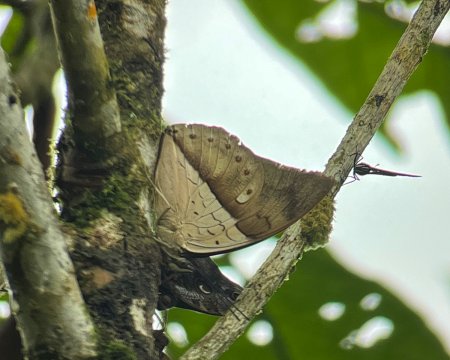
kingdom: Animalia
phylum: Arthropoda
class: Insecta
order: Lepidoptera
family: Nymphalidae
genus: Prepona
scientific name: Prepona meander
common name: White-spotted Prepona
